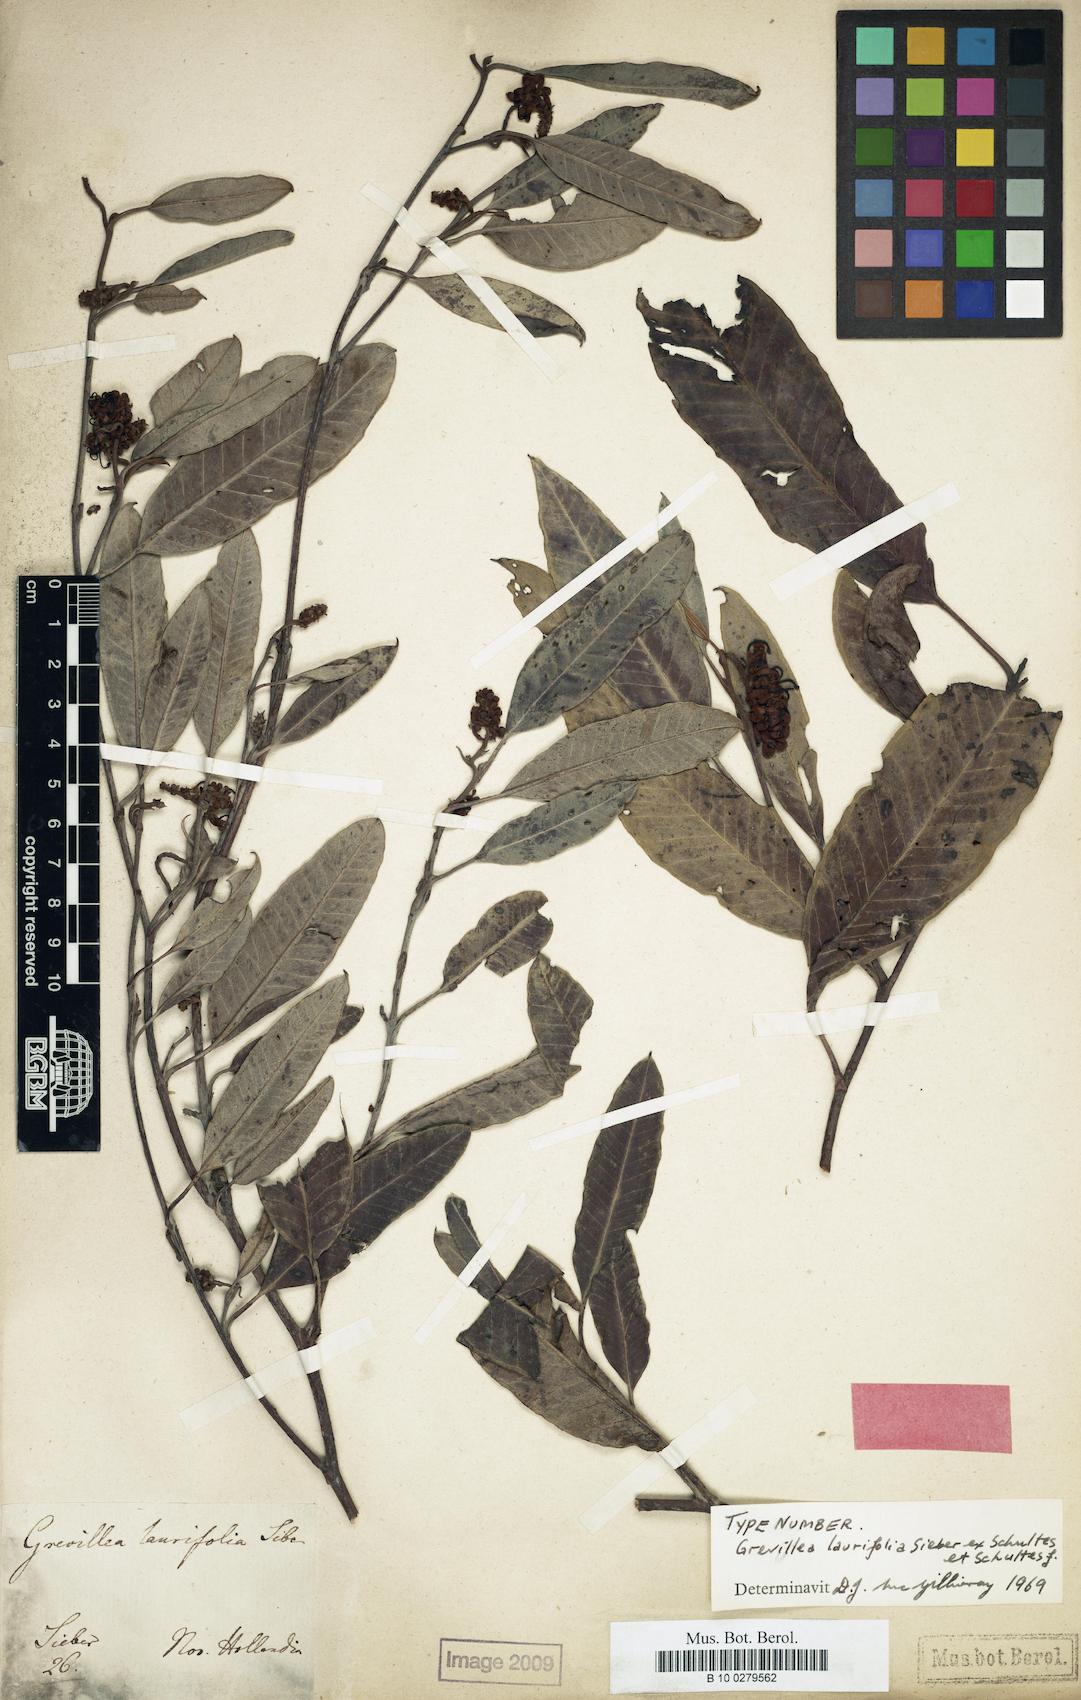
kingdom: Plantae
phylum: Tracheophyta
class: Magnoliopsida
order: Proteales
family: Proteaceae
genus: Grevillea
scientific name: Grevillea laurifolia
